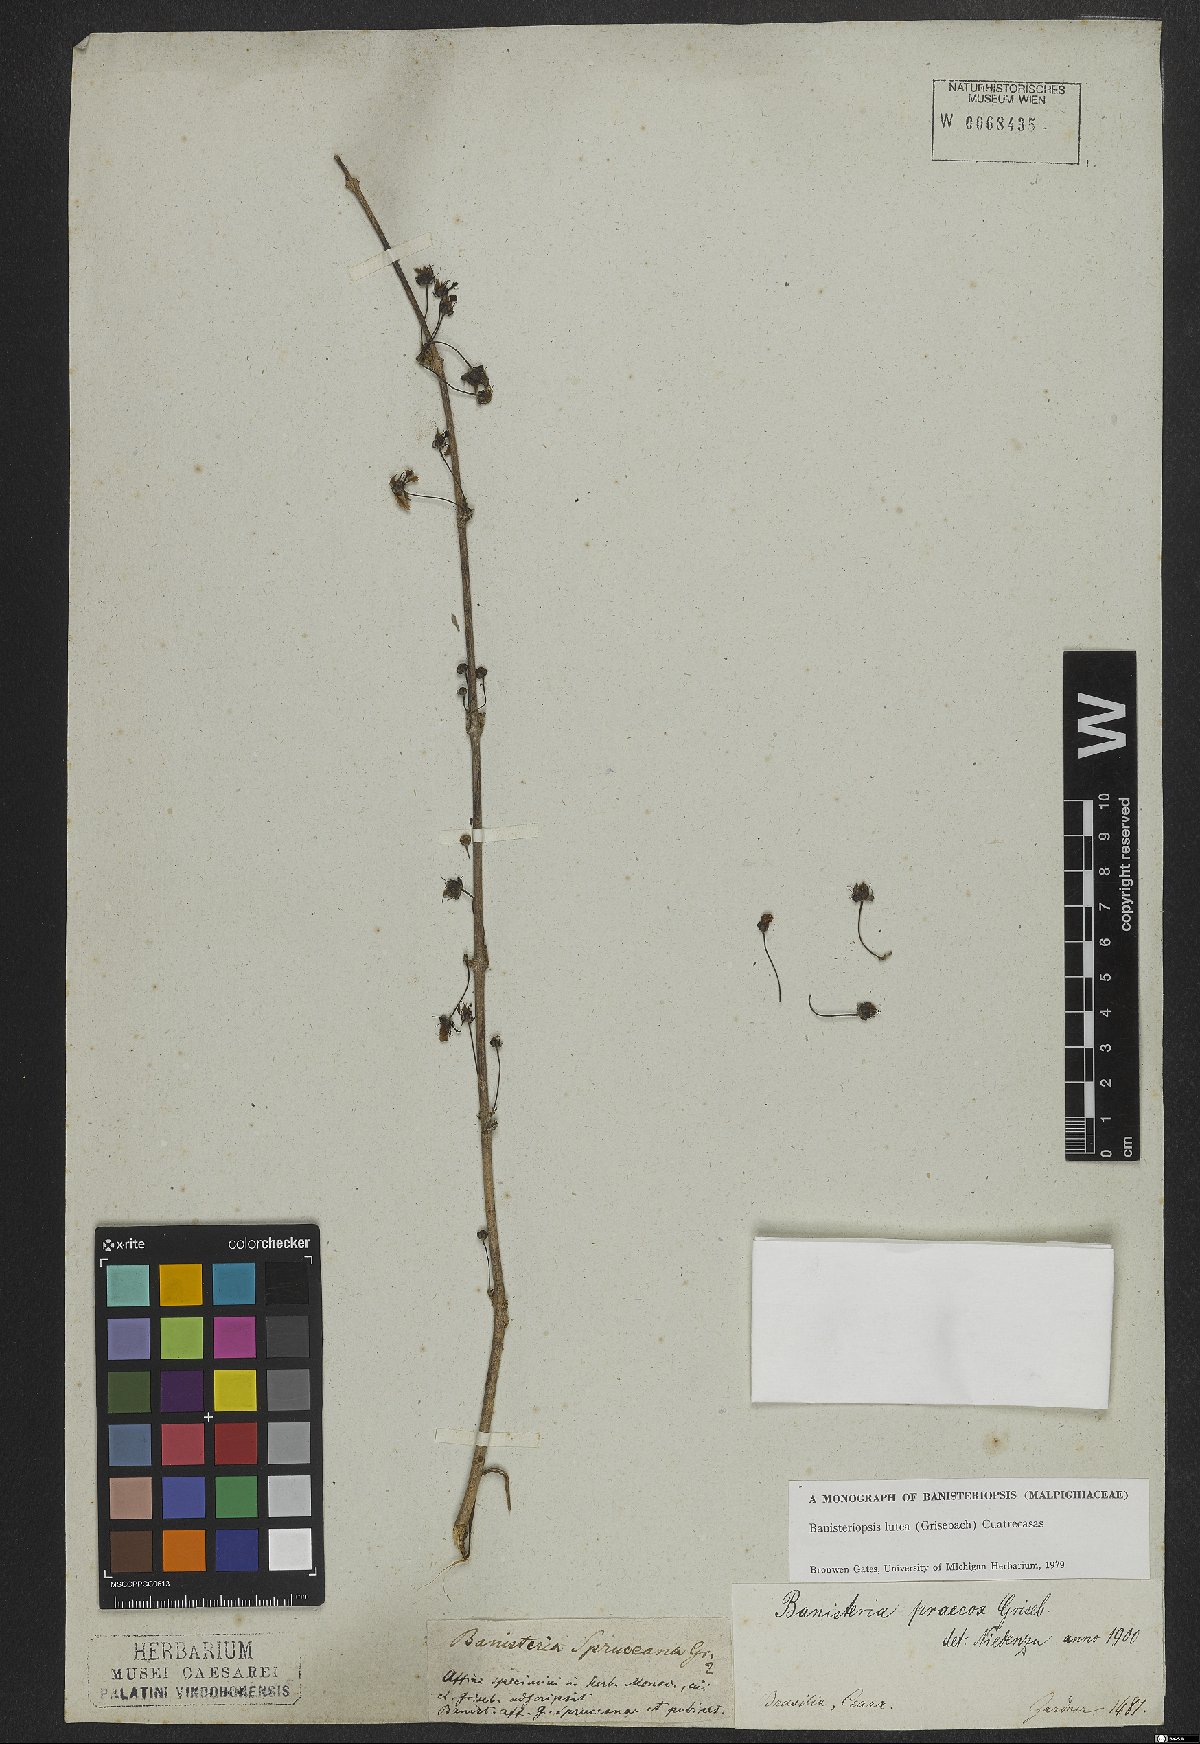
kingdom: Plantae
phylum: Tracheophyta
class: Magnoliopsida
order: Malpighiales
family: Malpighiaceae
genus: Diplopterys
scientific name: Diplopterys lutea
